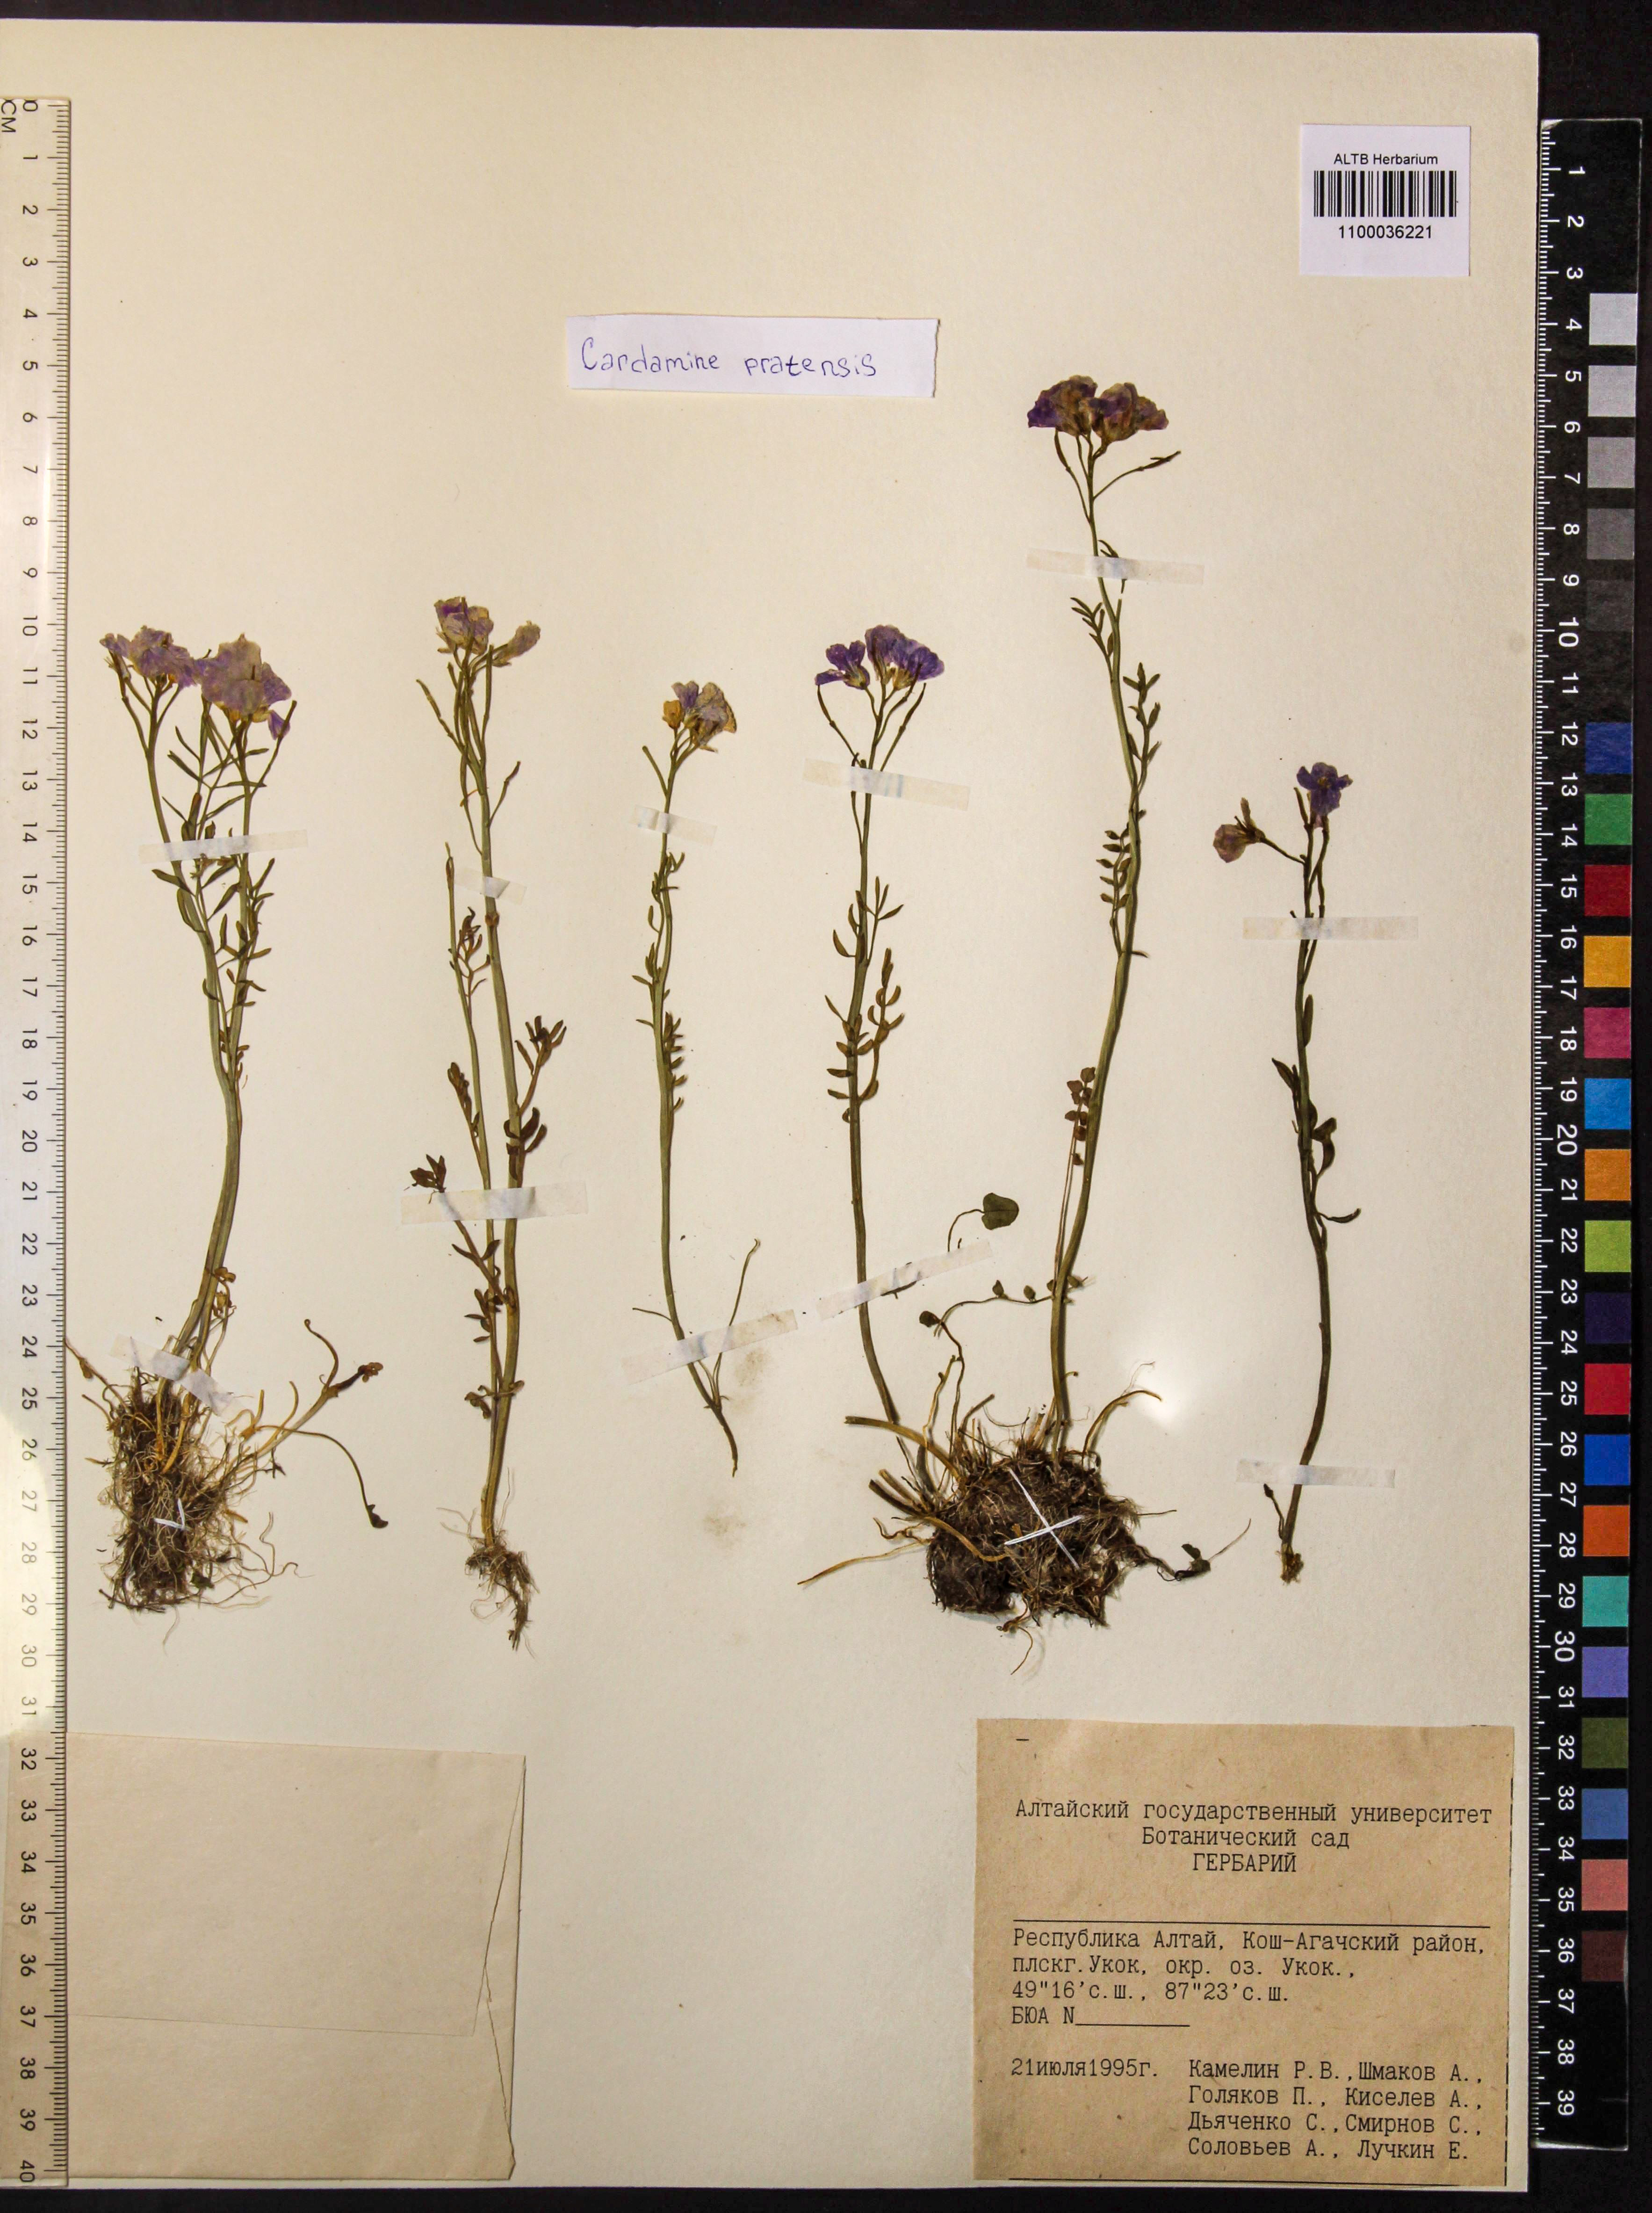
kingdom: Plantae
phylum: Tracheophyta
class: Magnoliopsida
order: Brassicales
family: Brassicaceae
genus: Cardamine
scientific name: Cardamine pratensis
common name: Cuckoo flower
